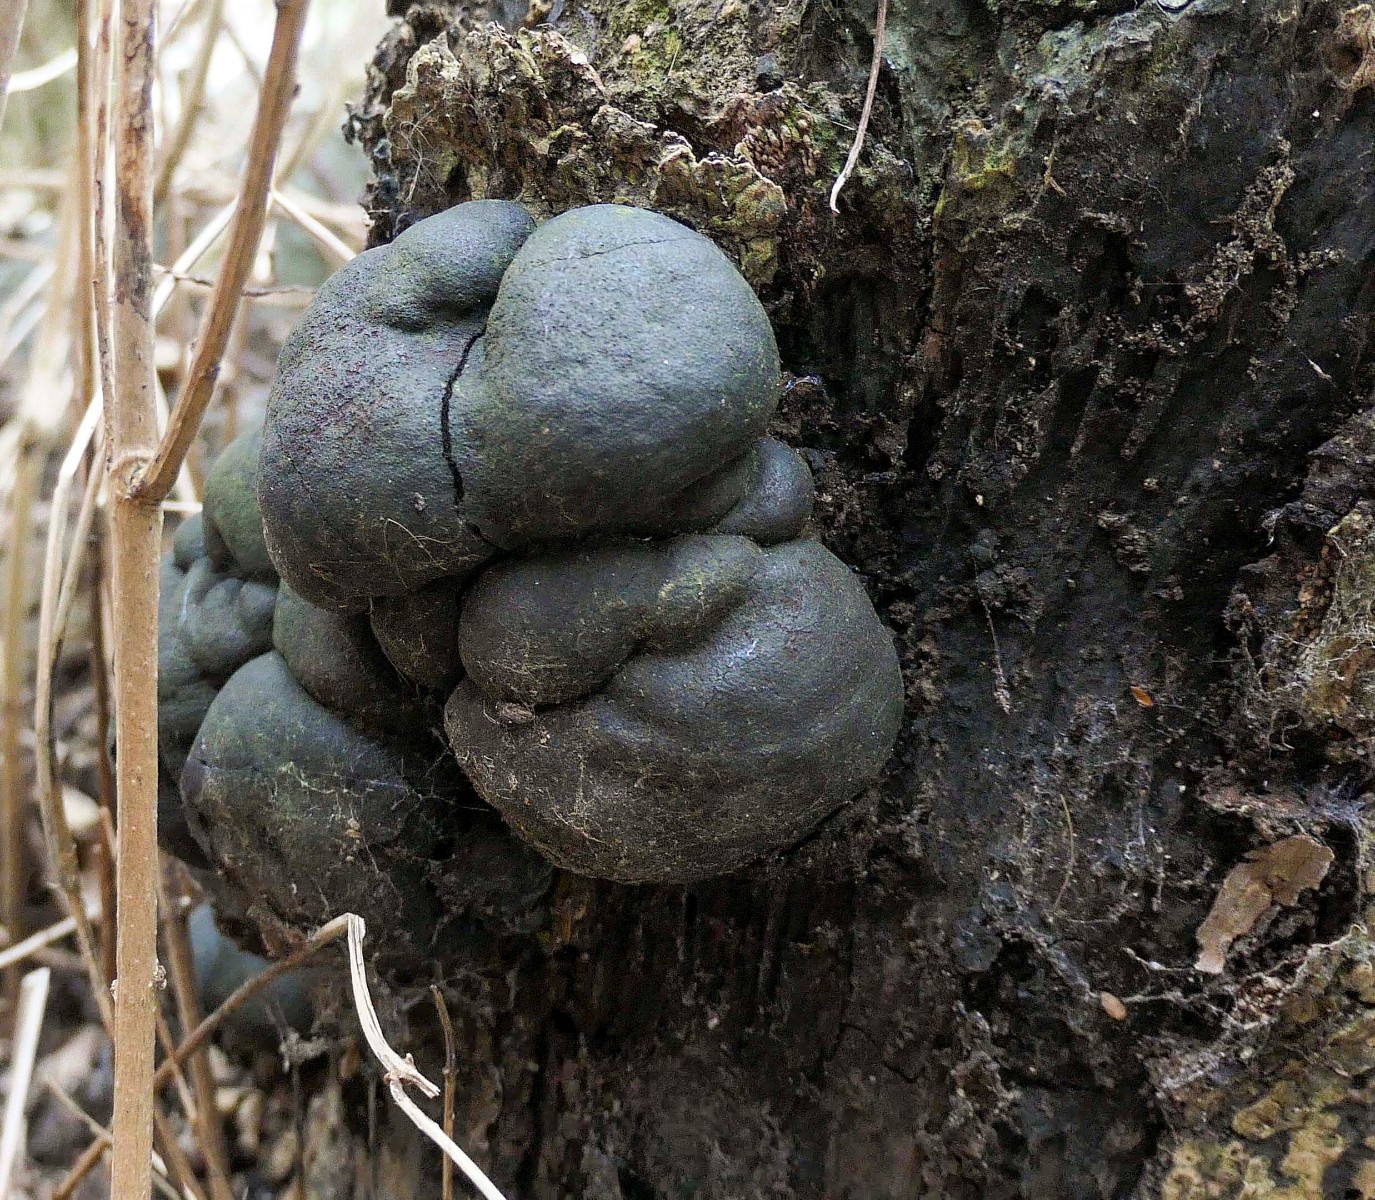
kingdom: Fungi
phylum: Ascomycota
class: Sordariomycetes
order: Xylariales
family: Hypoxylaceae
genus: Daldinia
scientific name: Daldinia concentrica
